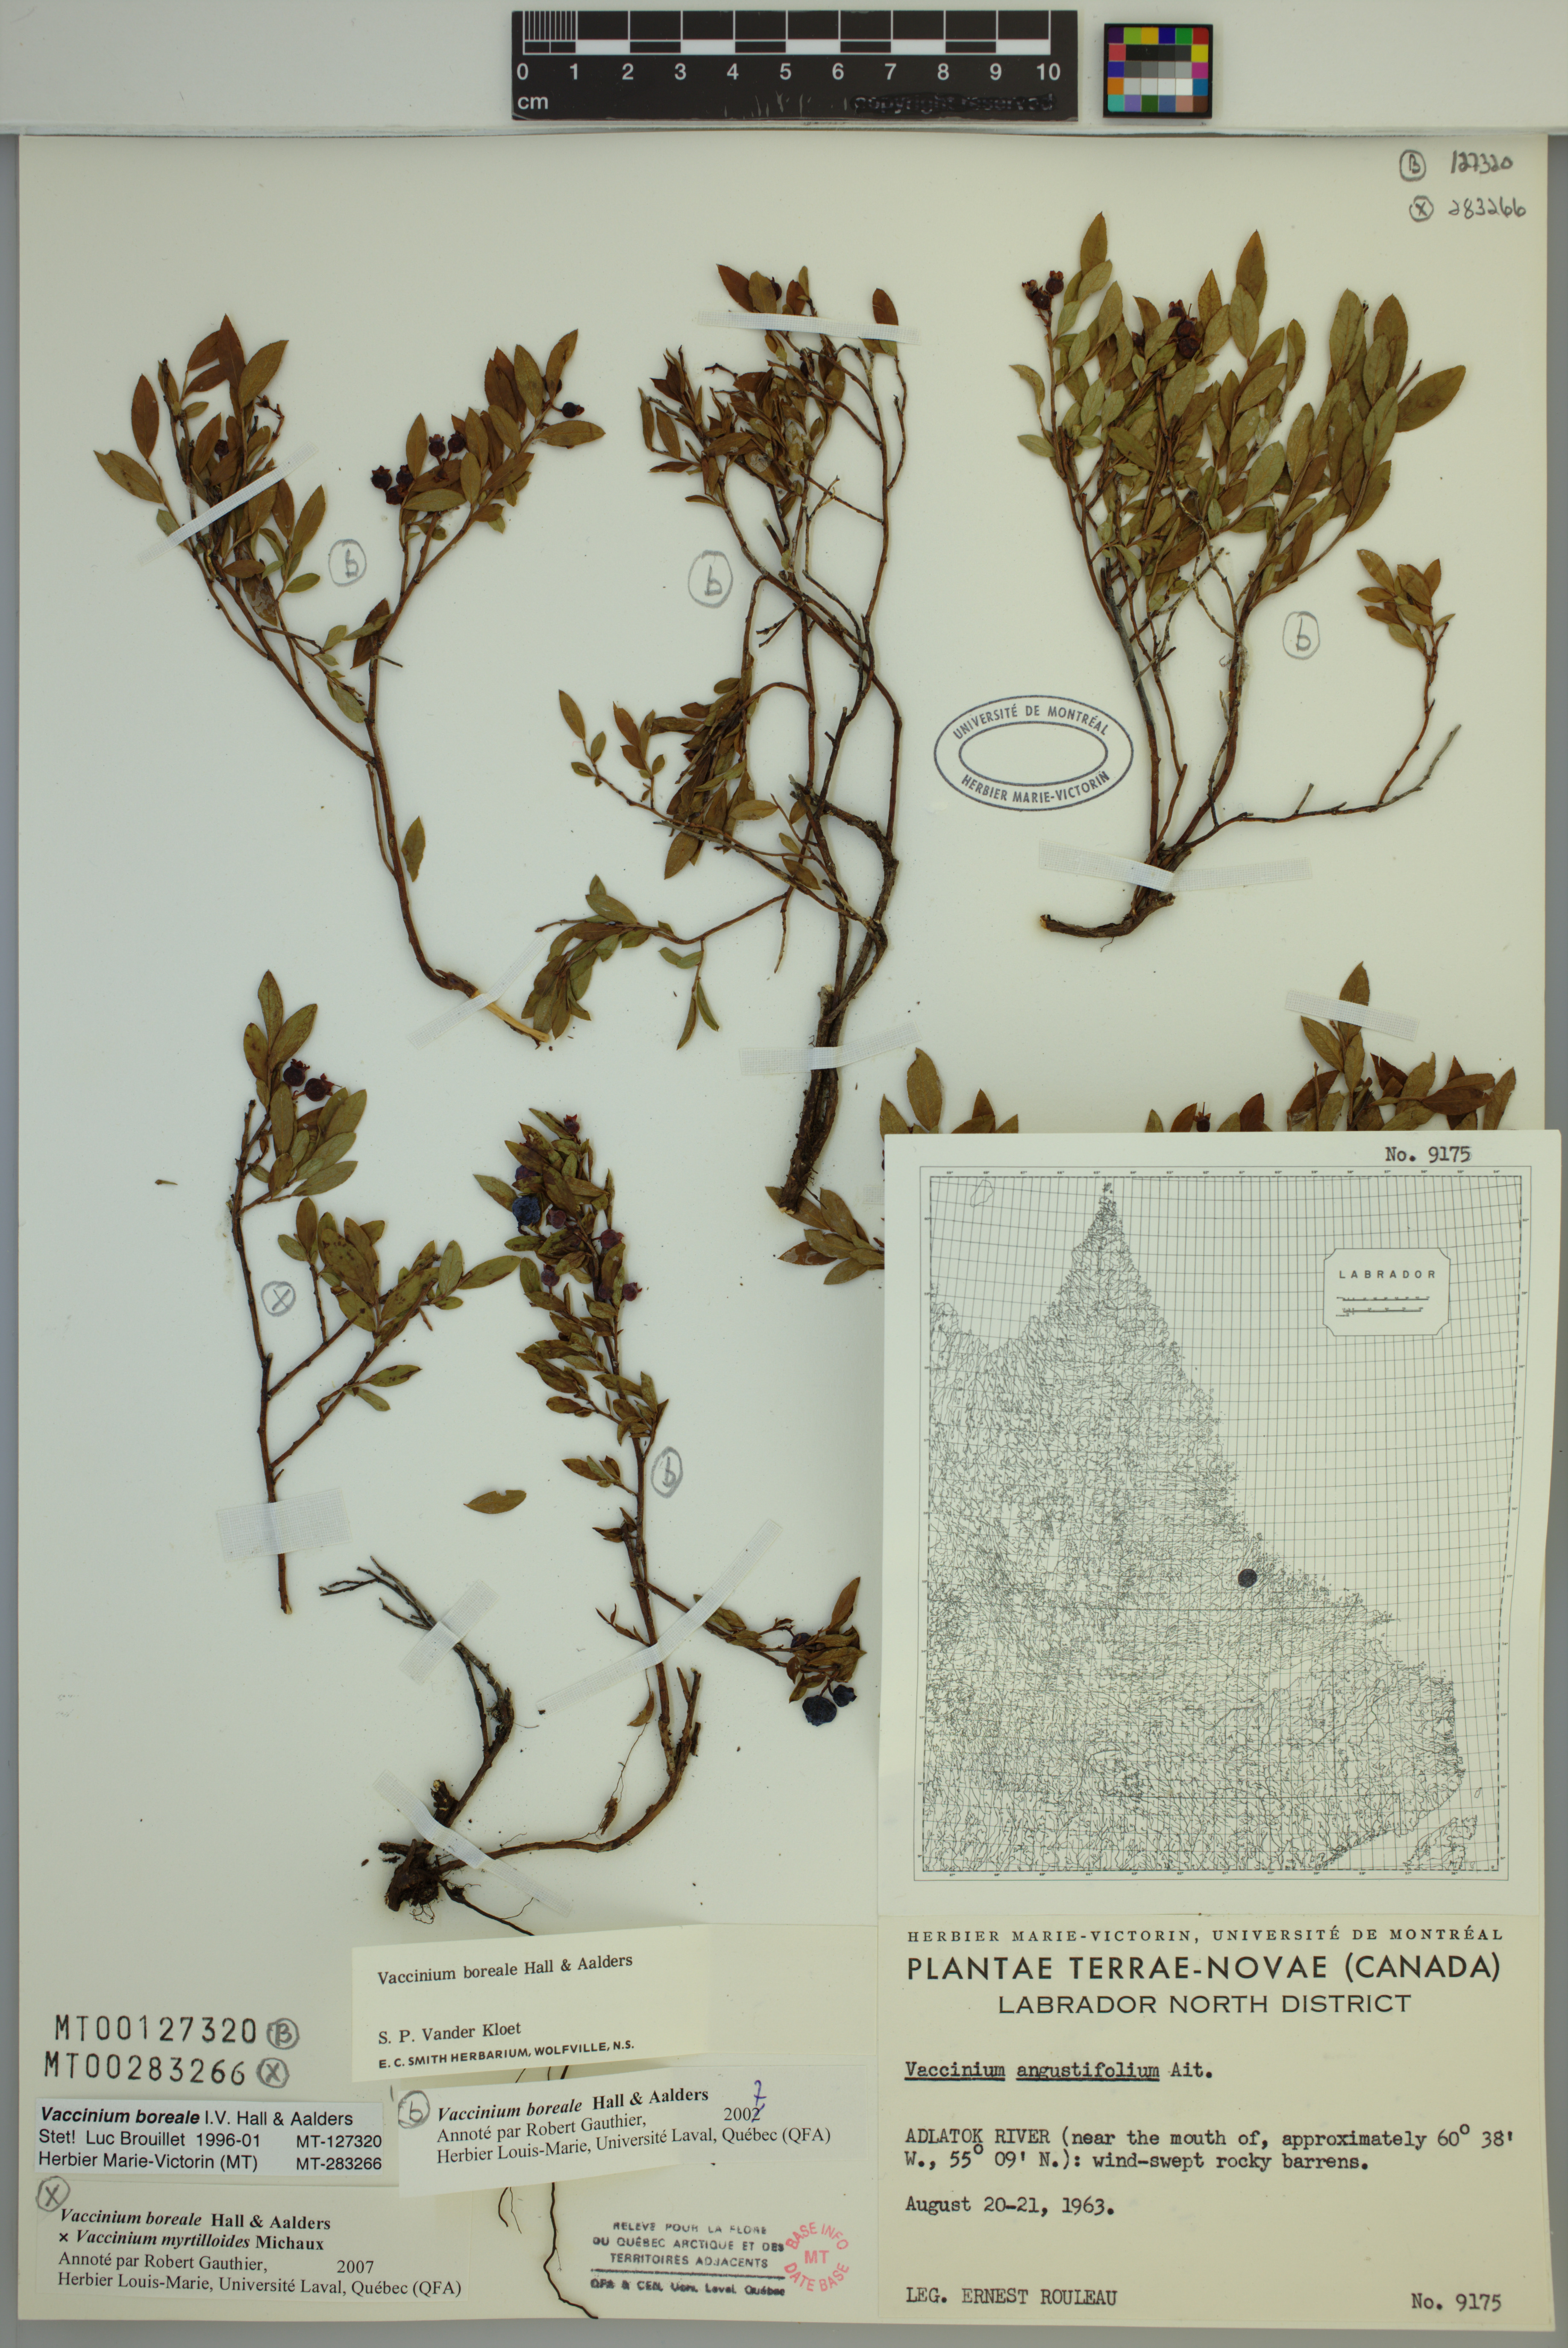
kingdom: Plantae
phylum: Tracheophyta
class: Magnoliopsida
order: Ericales
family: Ericaceae
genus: Vaccinium
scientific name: Vaccinium boreale
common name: Northern blueberry
